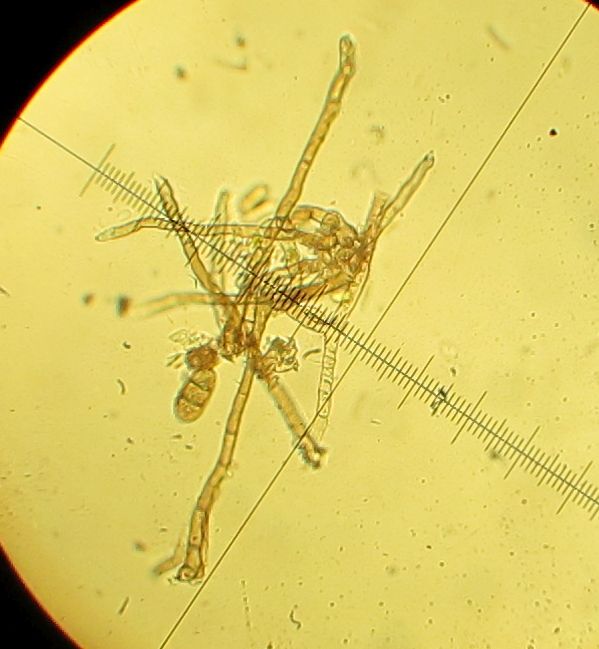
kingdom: Fungi
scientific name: Fungi
